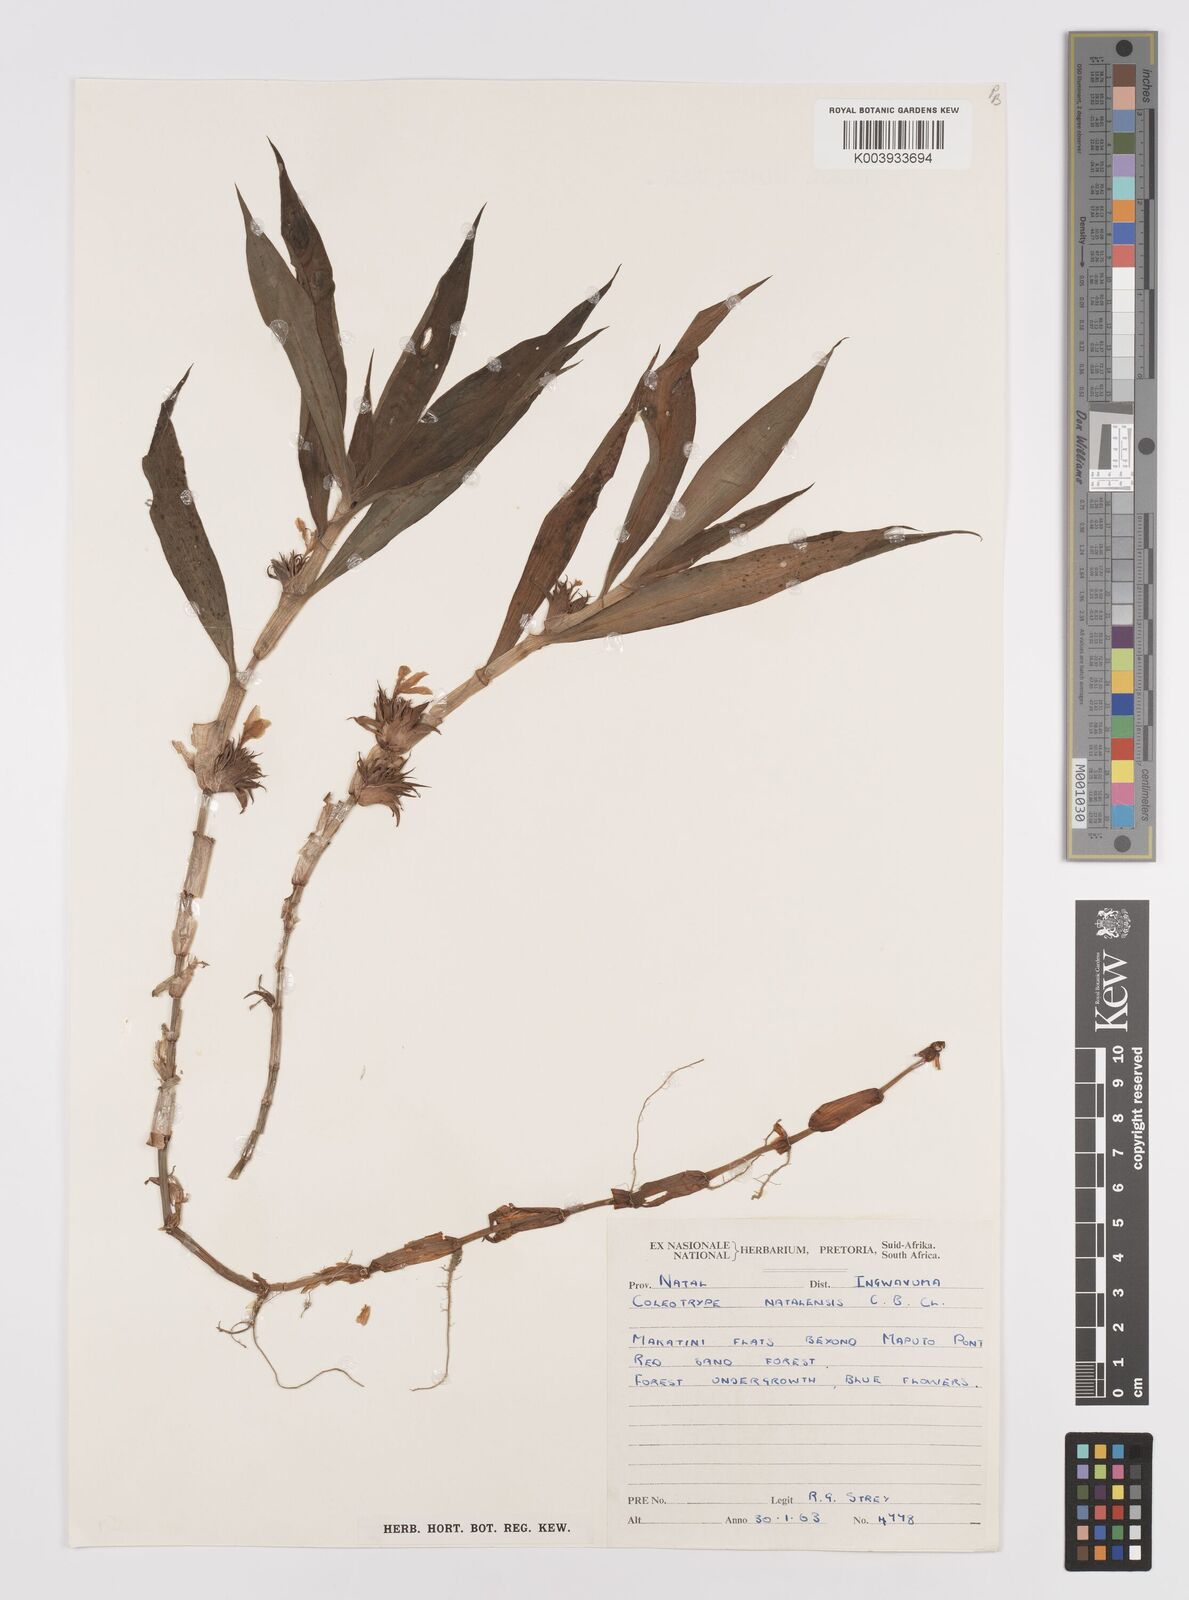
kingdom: Plantae
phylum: Tracheophyta
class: Liliopsida
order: Commelinales
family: Commelinaceae
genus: Coleotrype
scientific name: Coleotrype natalensis
